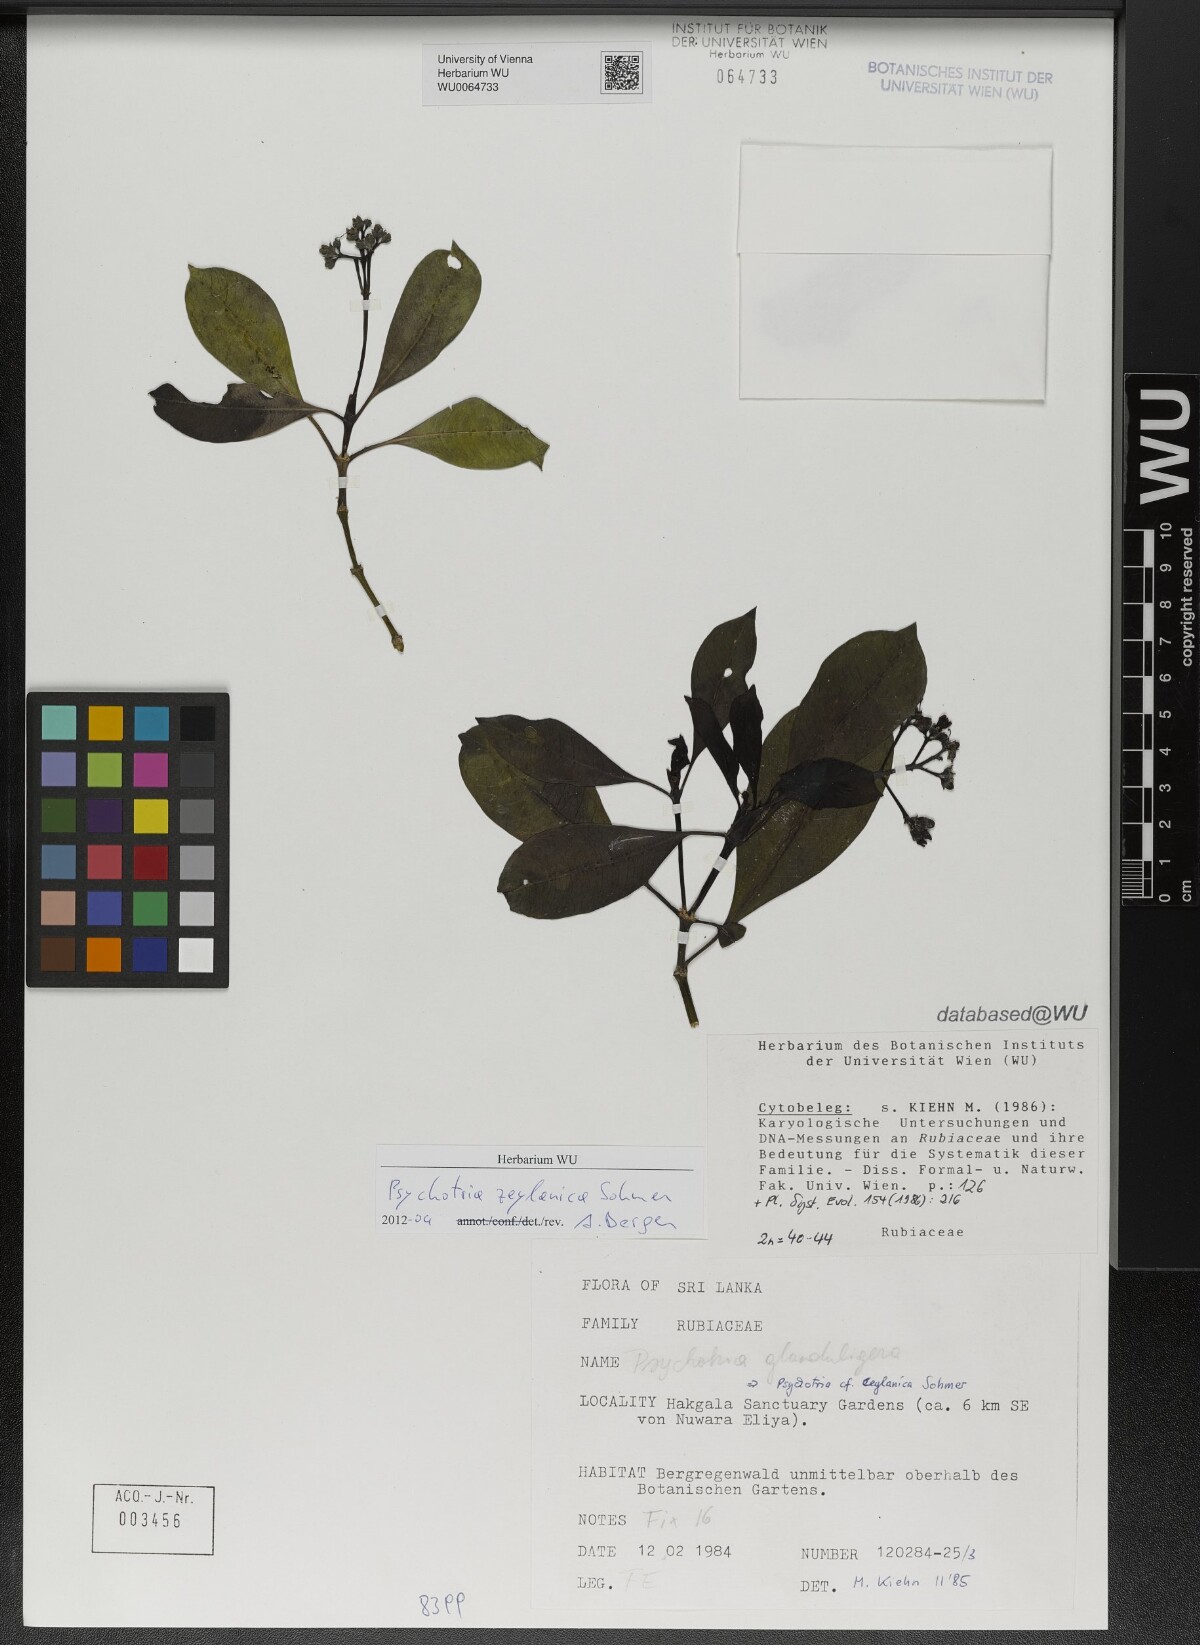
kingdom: Plantae
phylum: Tracheophyta
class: Magnoliopsida
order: Gentianales
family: Rubiaceae
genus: Psychotria
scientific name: Psychotria zeylanica
